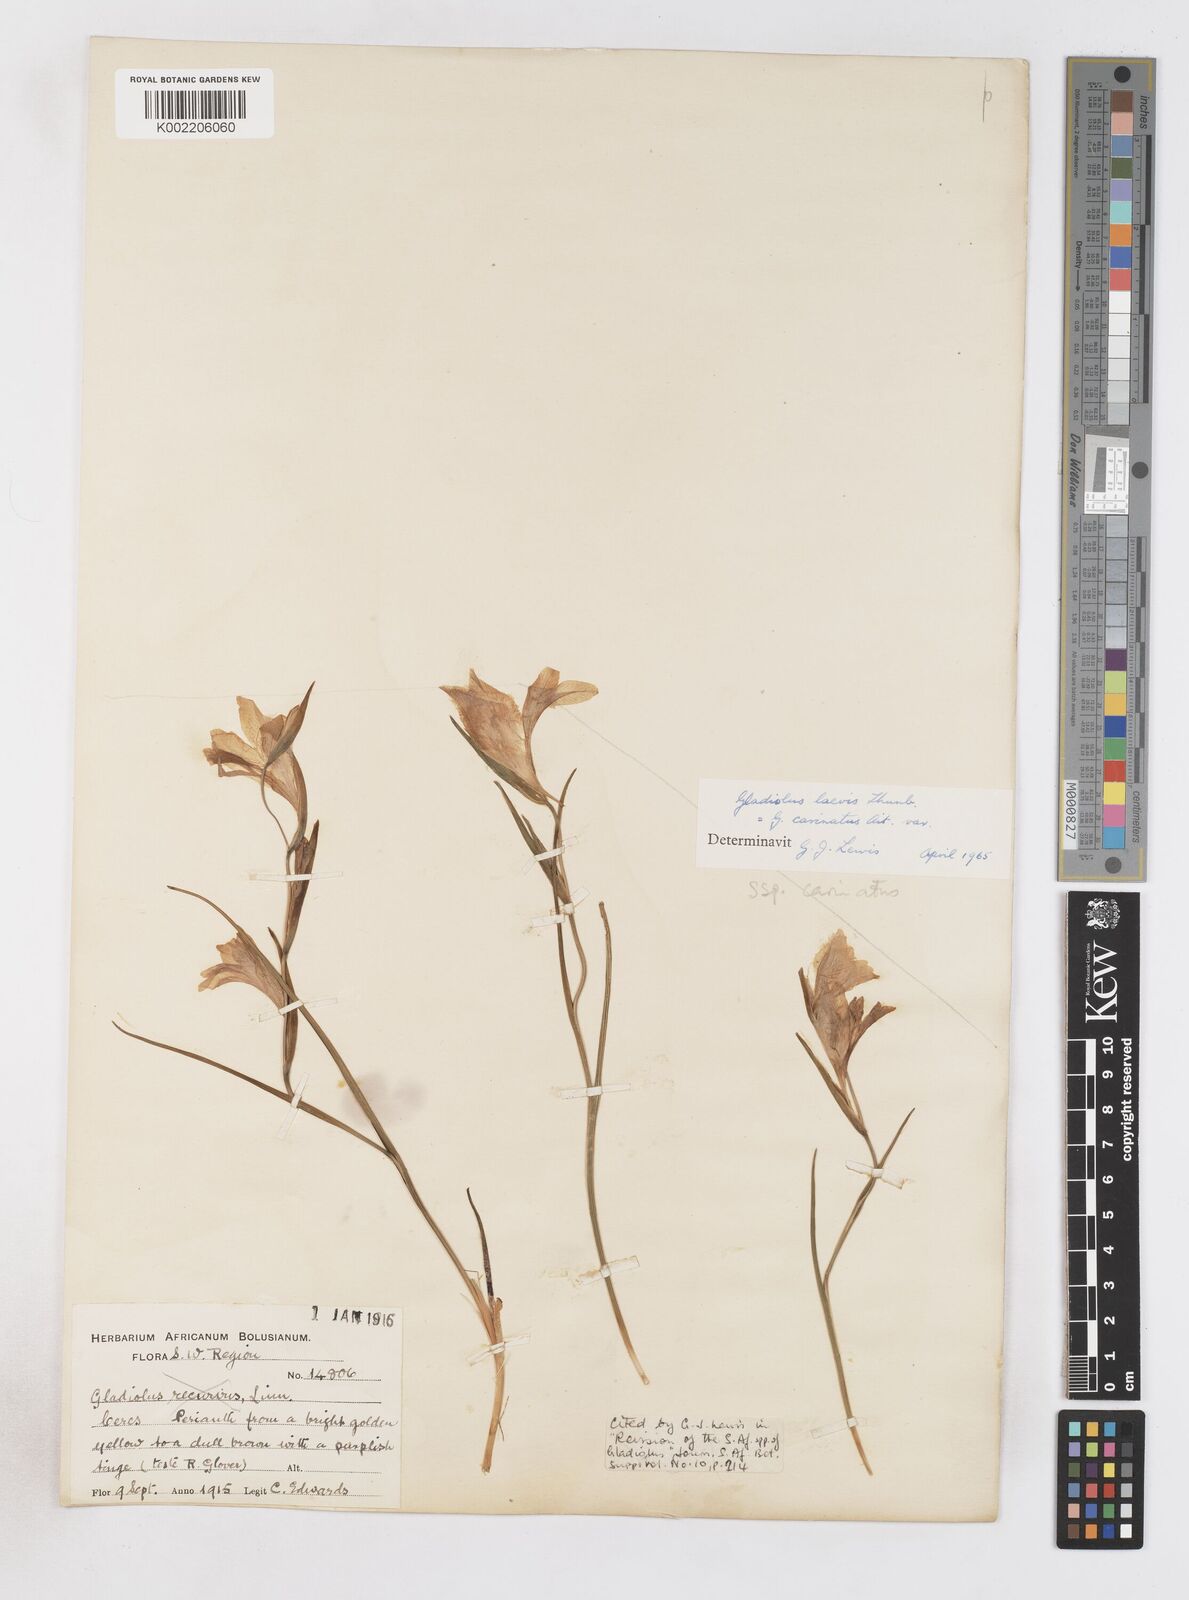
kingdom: Plantae
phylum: Tracheophyta
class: Liliopsida
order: Asparagales
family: Iridaceae
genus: Gladiolus
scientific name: Gladiolus carinatus
